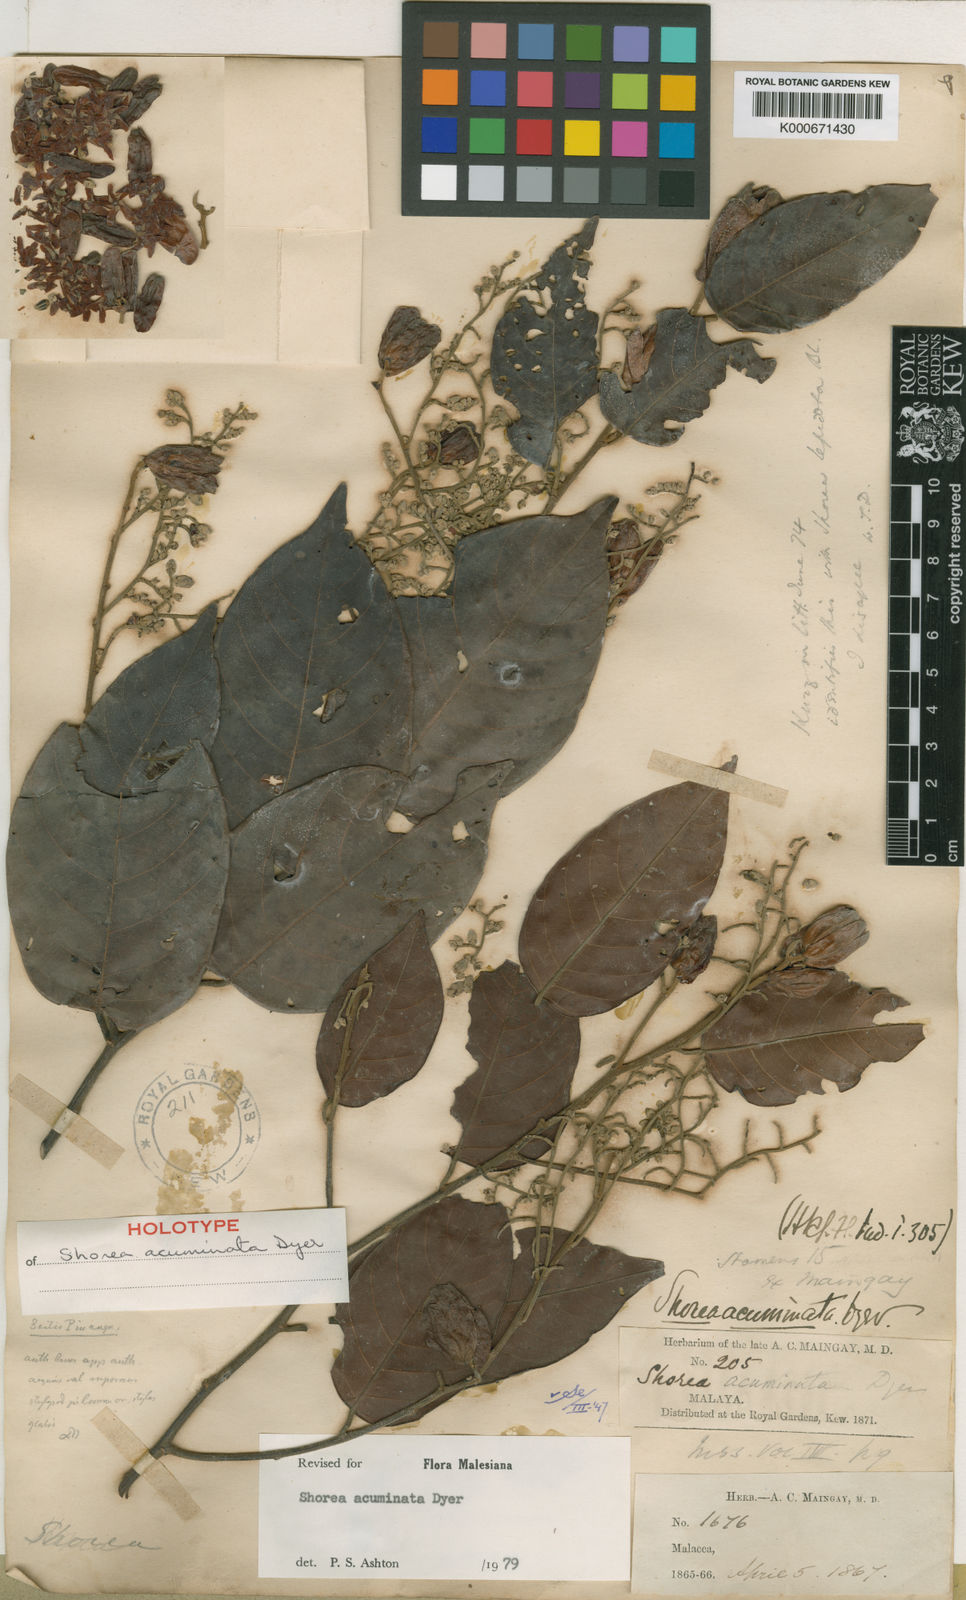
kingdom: Plantae
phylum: Tracheophyta
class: Magnoliopsida
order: Malvales
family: Dipterocarpaceae
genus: Shorea
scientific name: Shorea acuminata
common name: Dark red meranti
